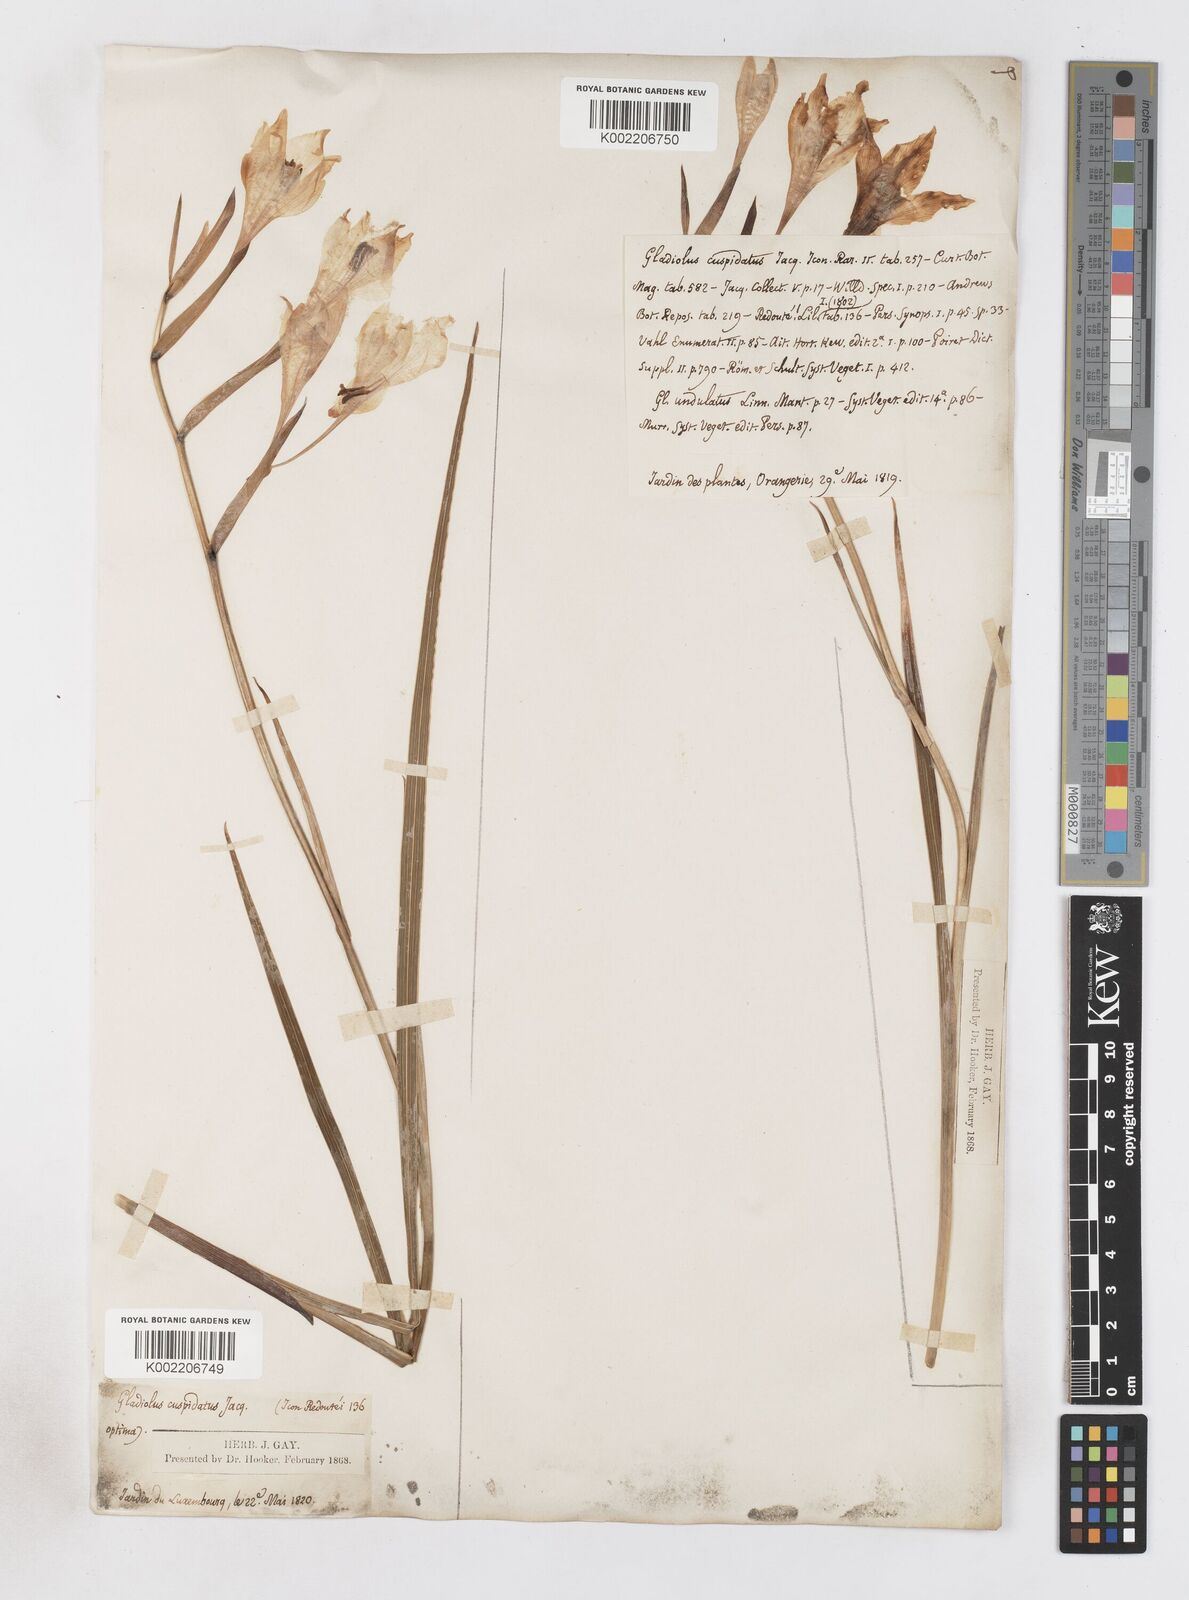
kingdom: Plantae
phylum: Tracheophyta
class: Liliopsida
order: Asparagales
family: Iridaceae
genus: Gladiolus
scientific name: Gladiolus undulatus
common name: Large painted-lady
